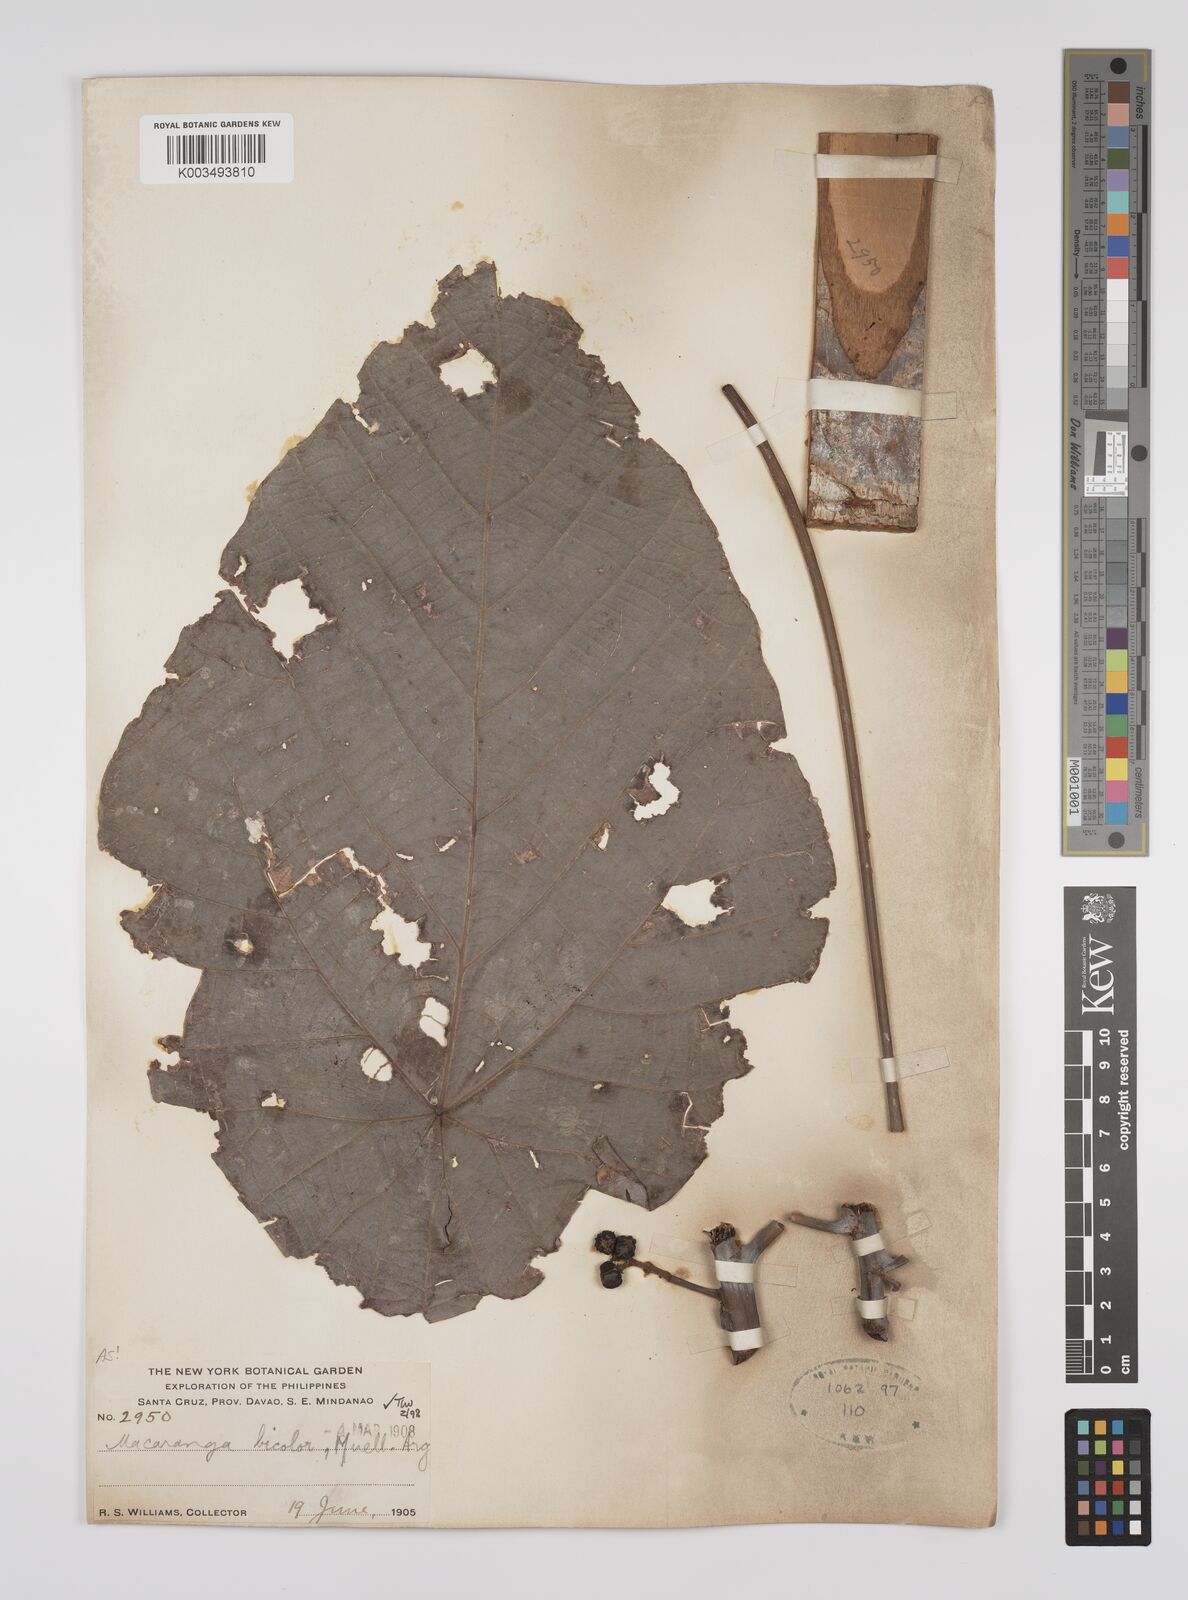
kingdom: Plantae
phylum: Tracheophyta
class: Magnoliopsida
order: Malpighiales
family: Euphorbiaceae
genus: Macaranga
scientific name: Macaranga bicolor
